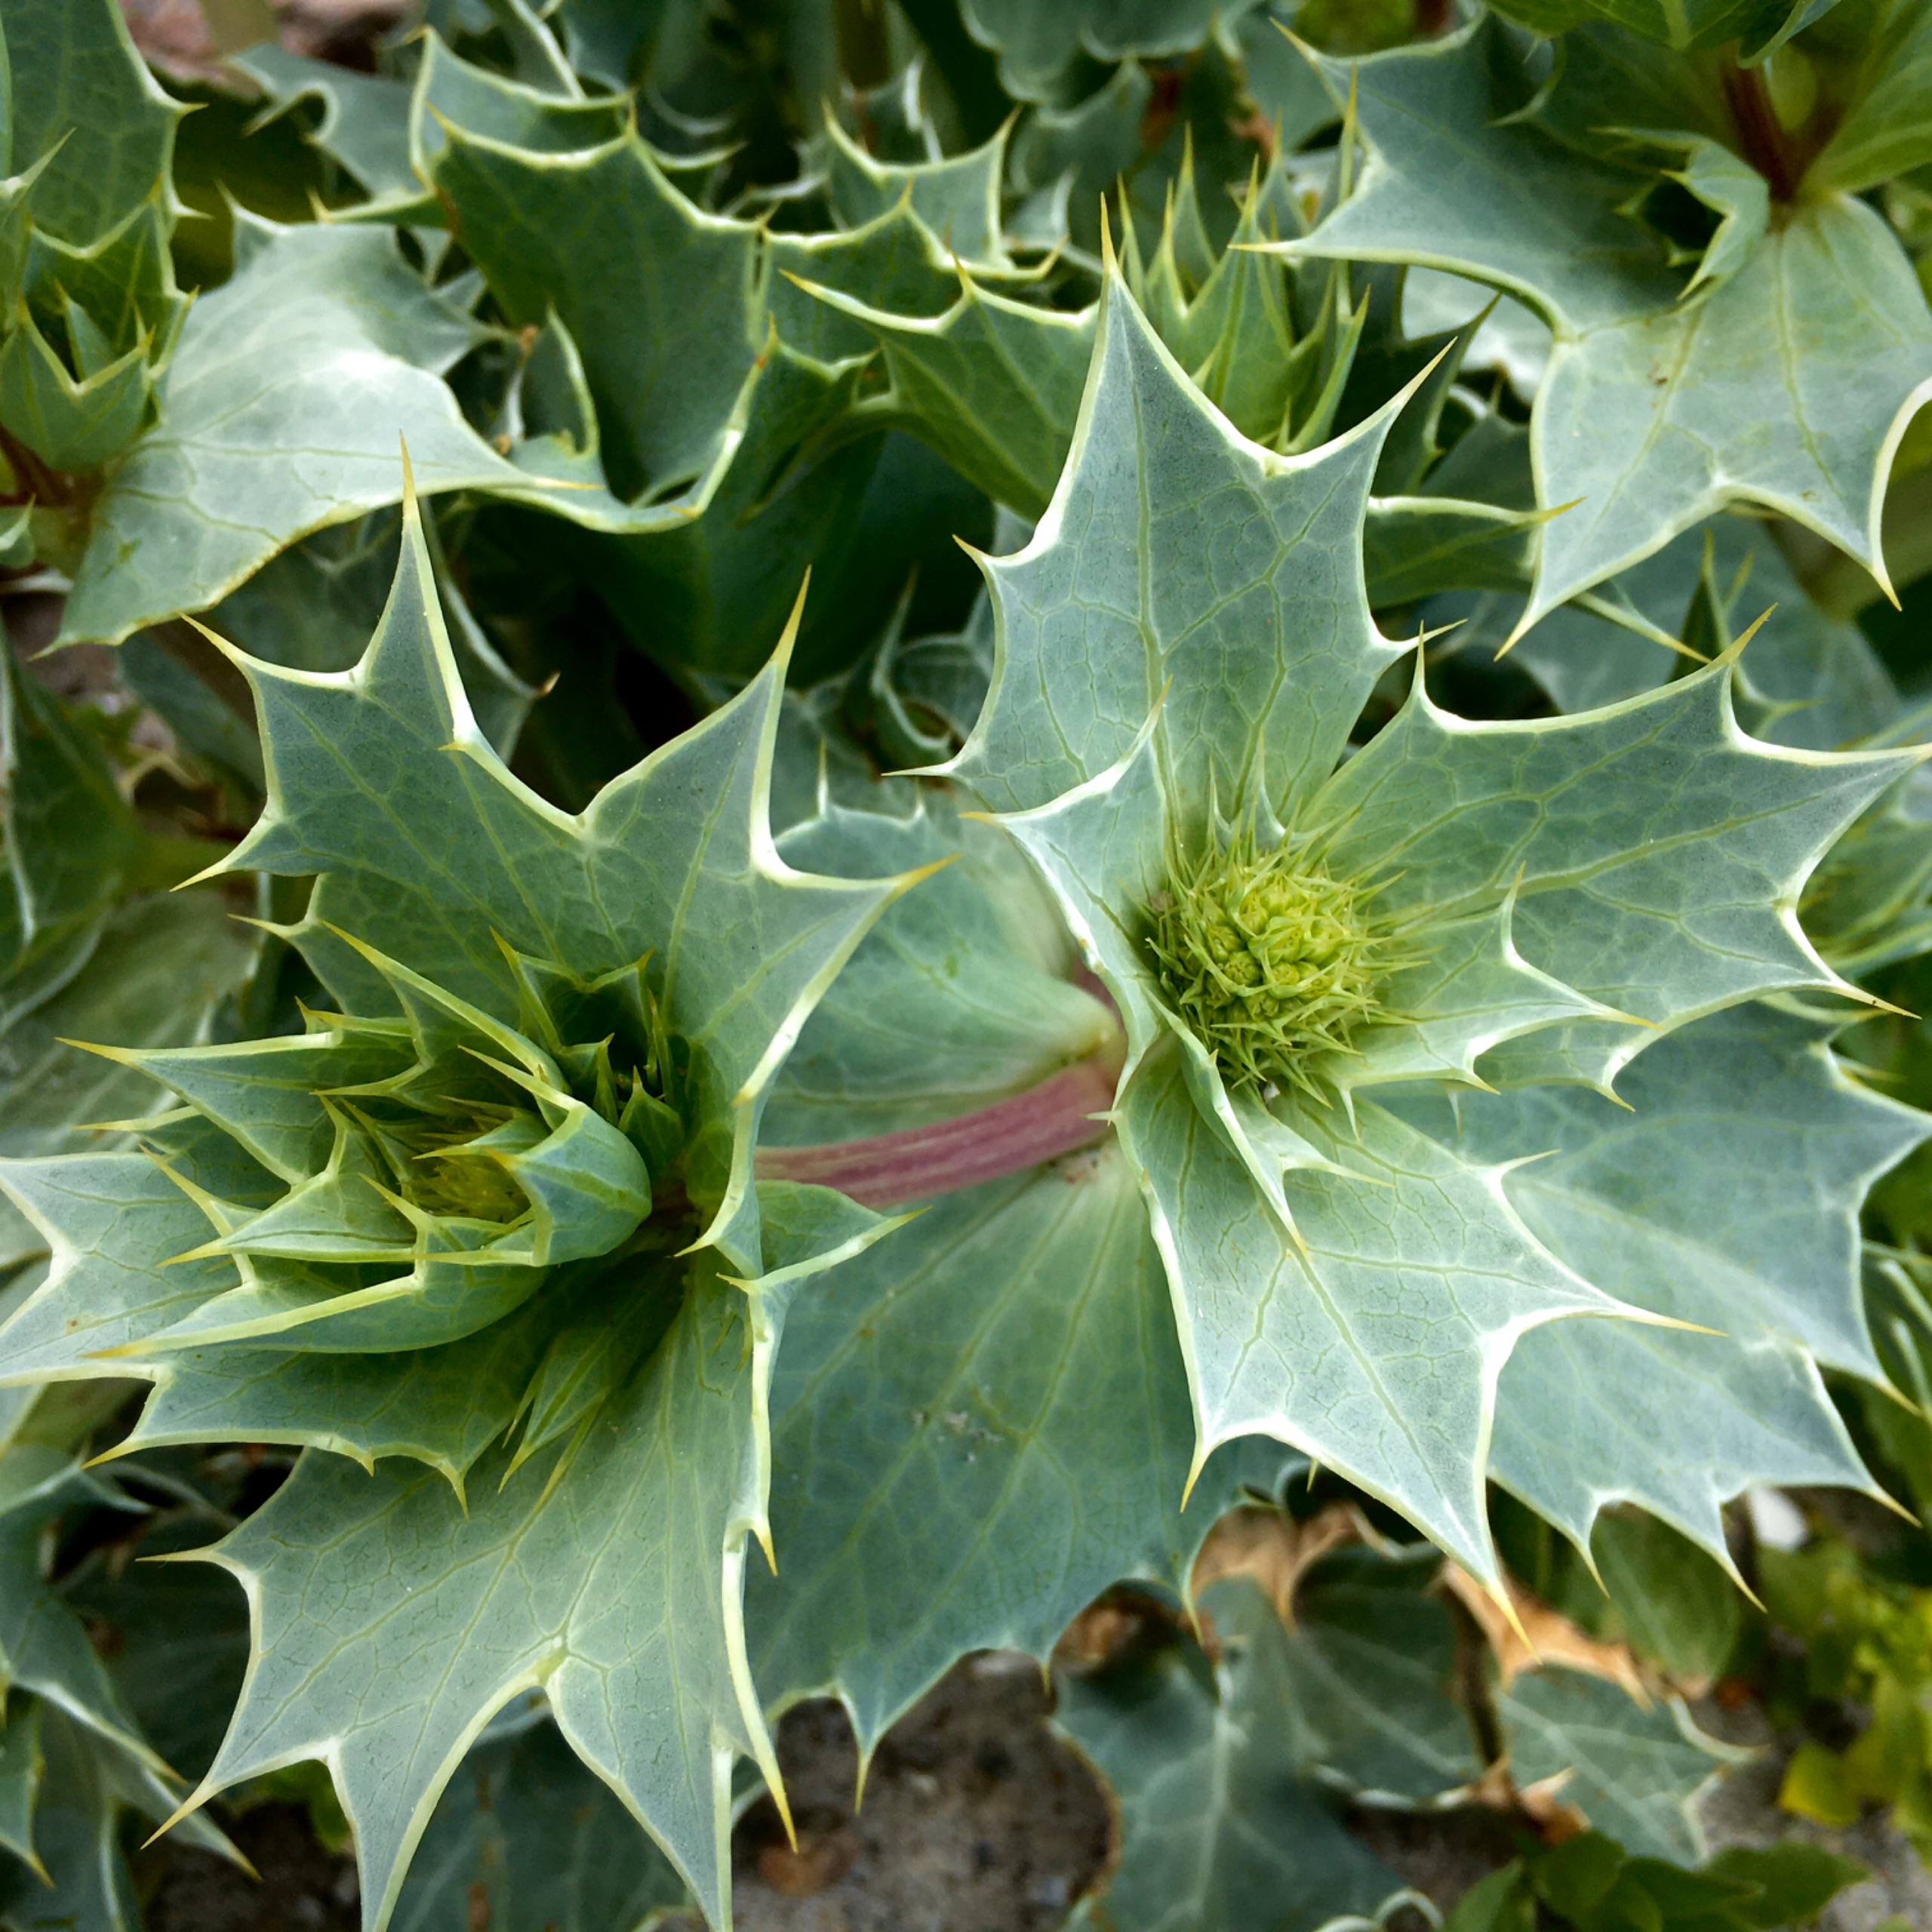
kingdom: Plantae
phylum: Tracheophyta
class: Magnoliopsida
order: Apiales
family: Apiaceae
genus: Eryngium
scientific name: Eryngium maritimum
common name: Strand-mandstro
